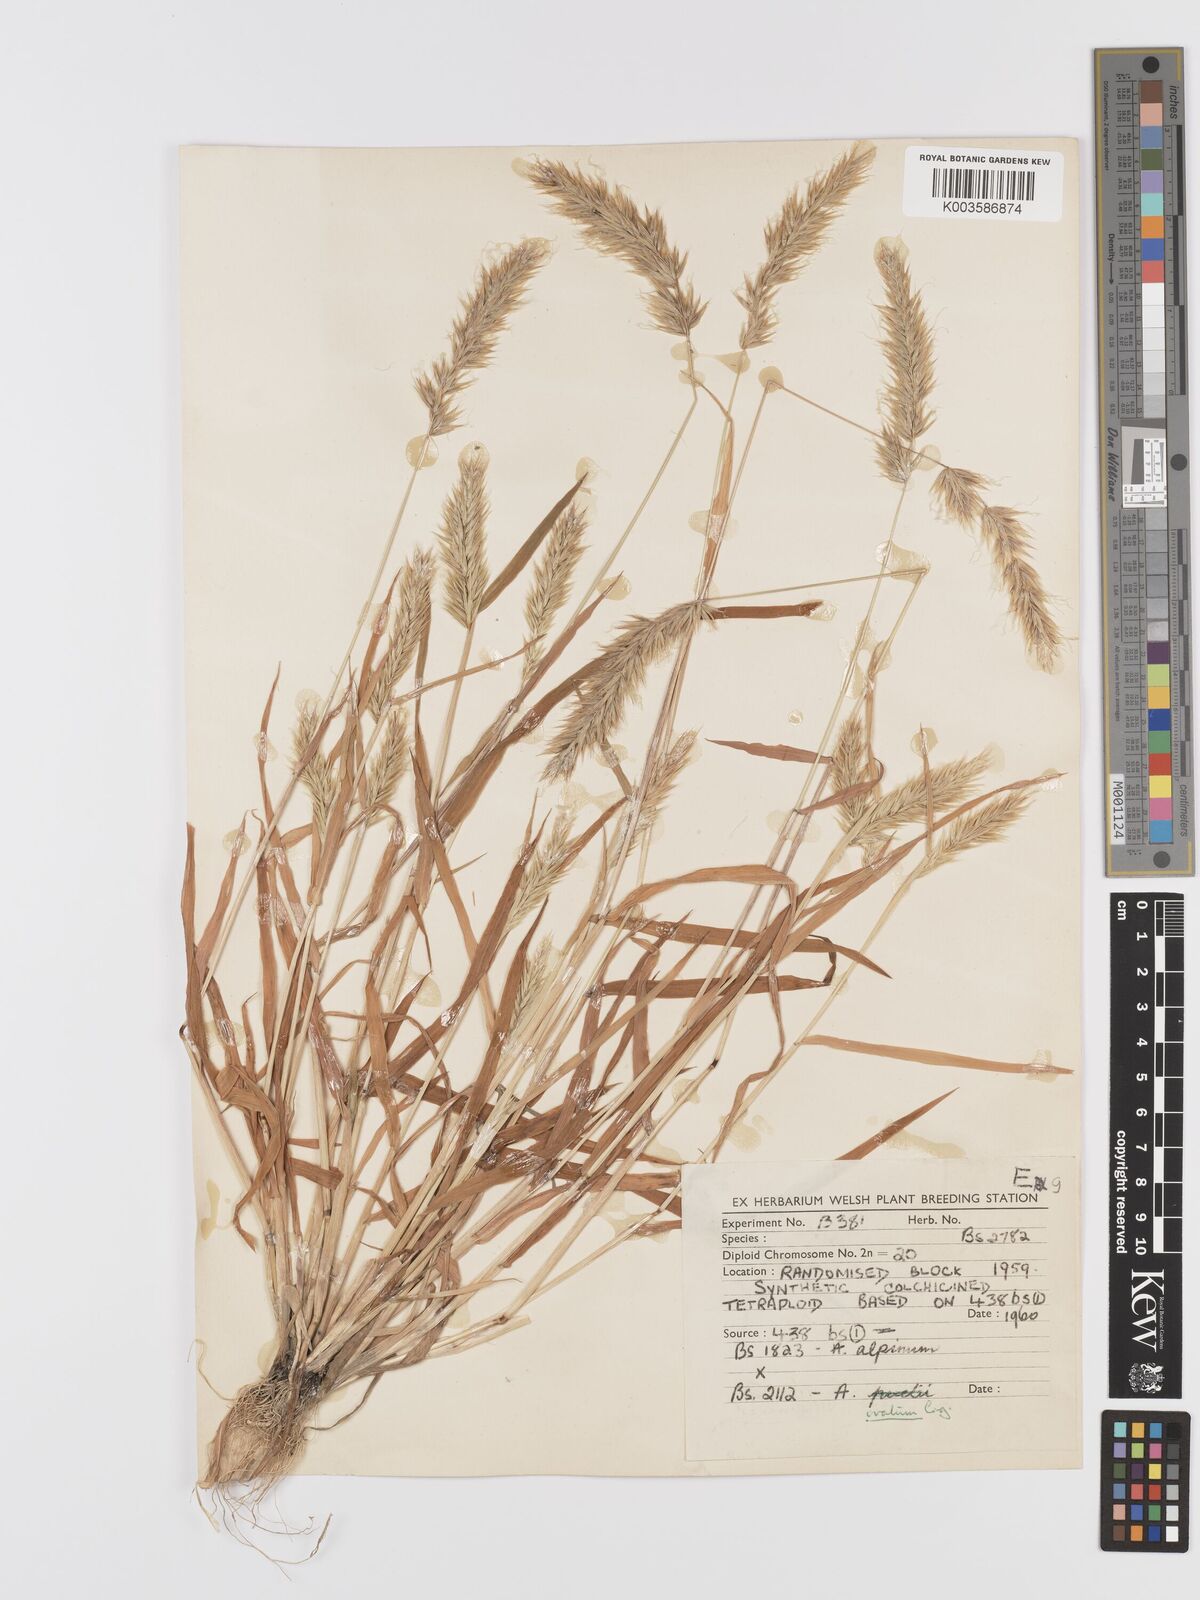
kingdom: Plantae
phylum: Tracheophyta
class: Liliopsida
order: Poales
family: Poaceae
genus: Anthoxanthum
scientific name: Anthoxanthum ovatum
